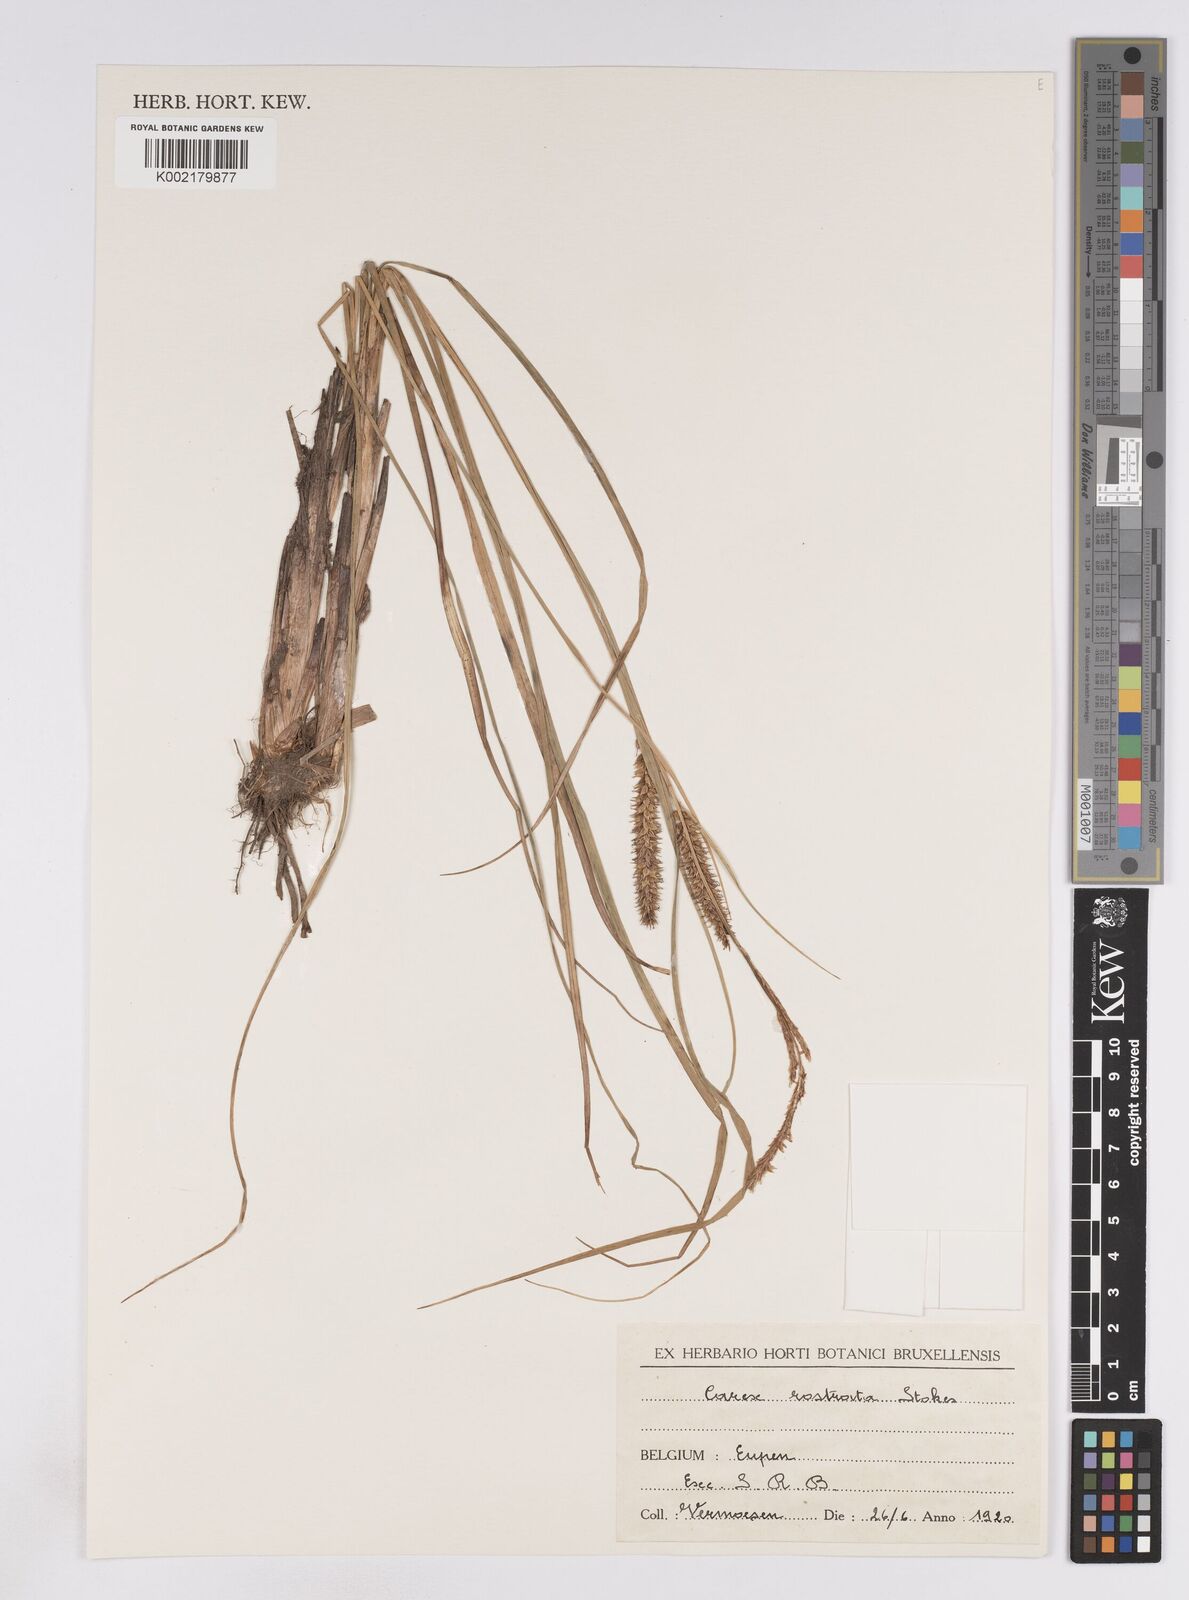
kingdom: Plantae
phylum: Tracheophyta
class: Liliopsida
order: Poales
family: Cyperaceae
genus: Carex
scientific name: Carex rostrata
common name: Bottle sedge
